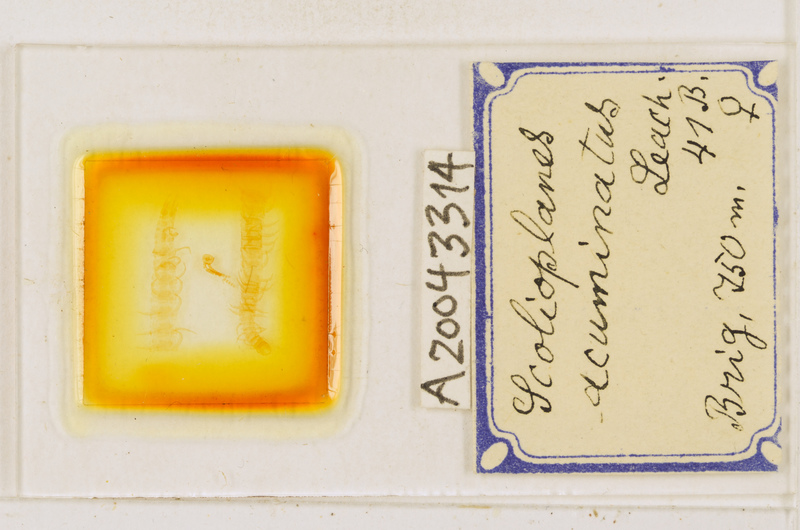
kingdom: Animalia
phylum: Arthropoda
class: Chilopoda
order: Geophilomorpha
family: Linotaeniidae
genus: Strigamia
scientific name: Strigamia acuminata
